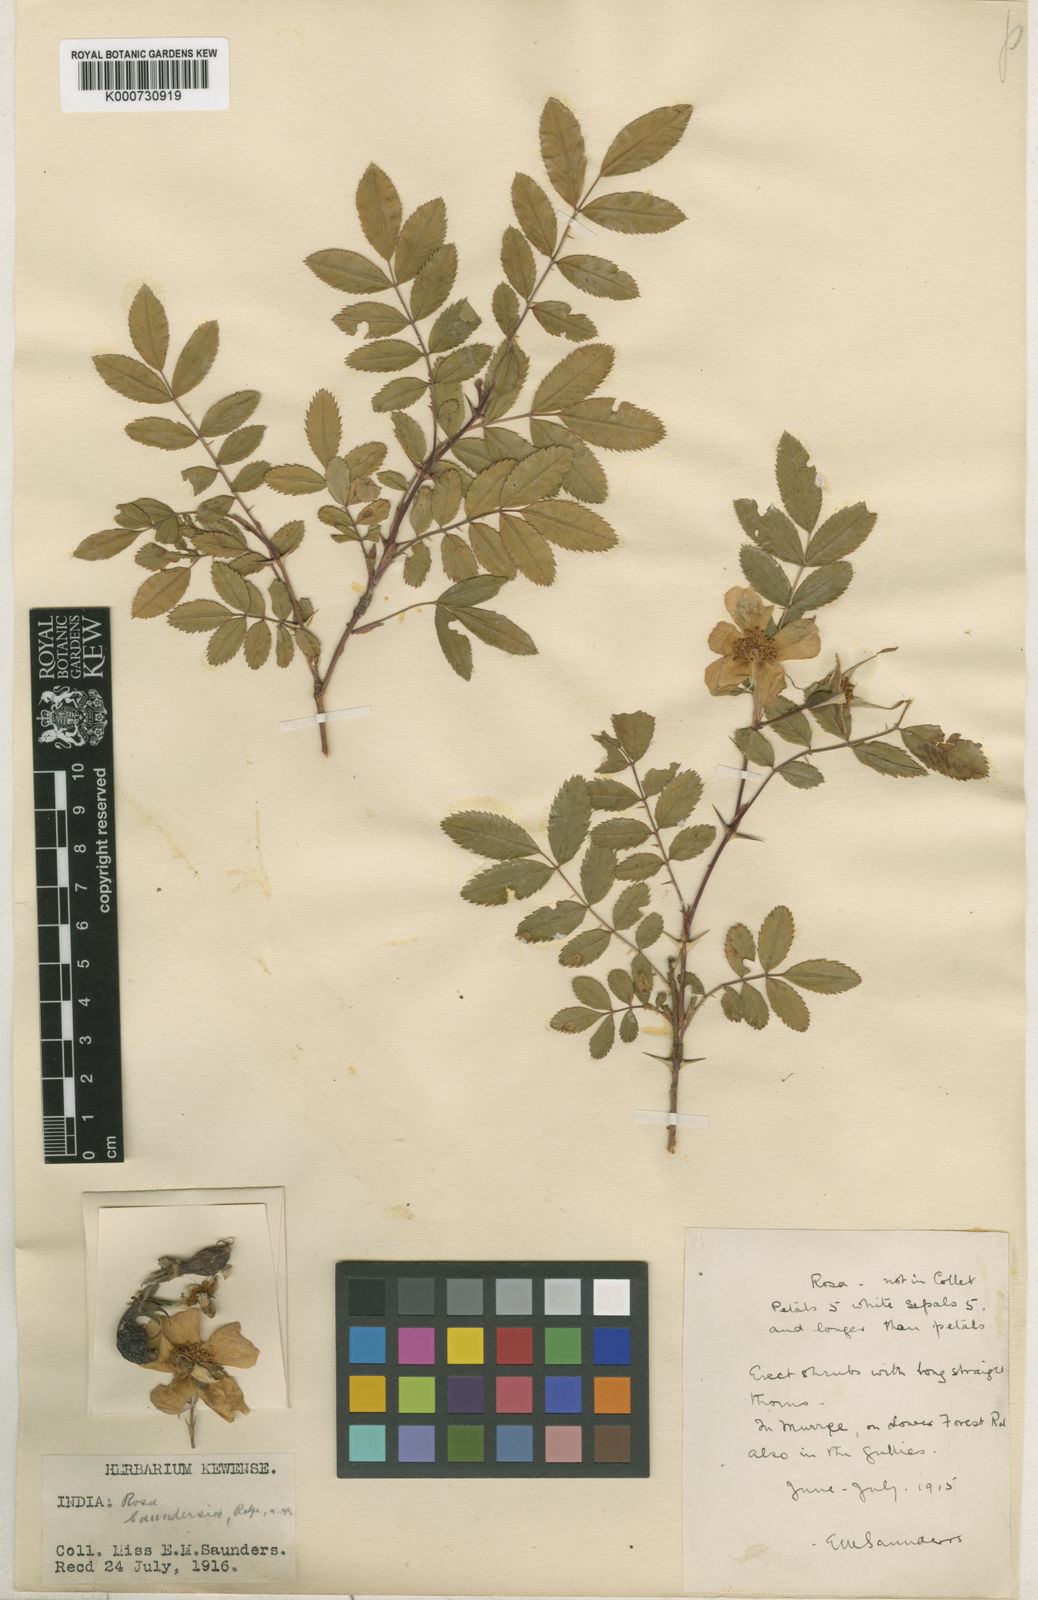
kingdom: Plantae
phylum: Tracheophyta
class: Magnoliopsida
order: Rosales
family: Rosaceae
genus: Rosa
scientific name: Rosa saundersiae
